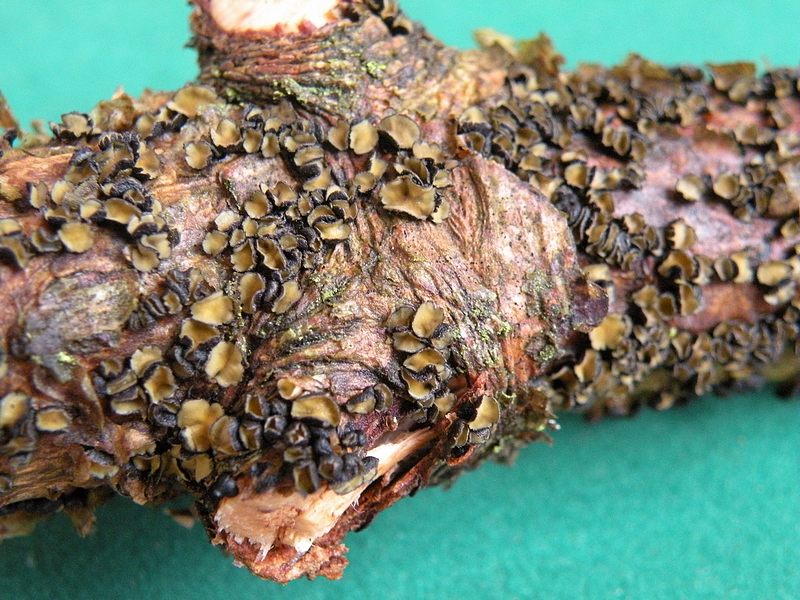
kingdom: Fungi
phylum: Ascomycota
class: Leotiomycetes
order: Helotiales
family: Cenangiaceae
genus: Cenangium
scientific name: Cenangium ferruginosum
